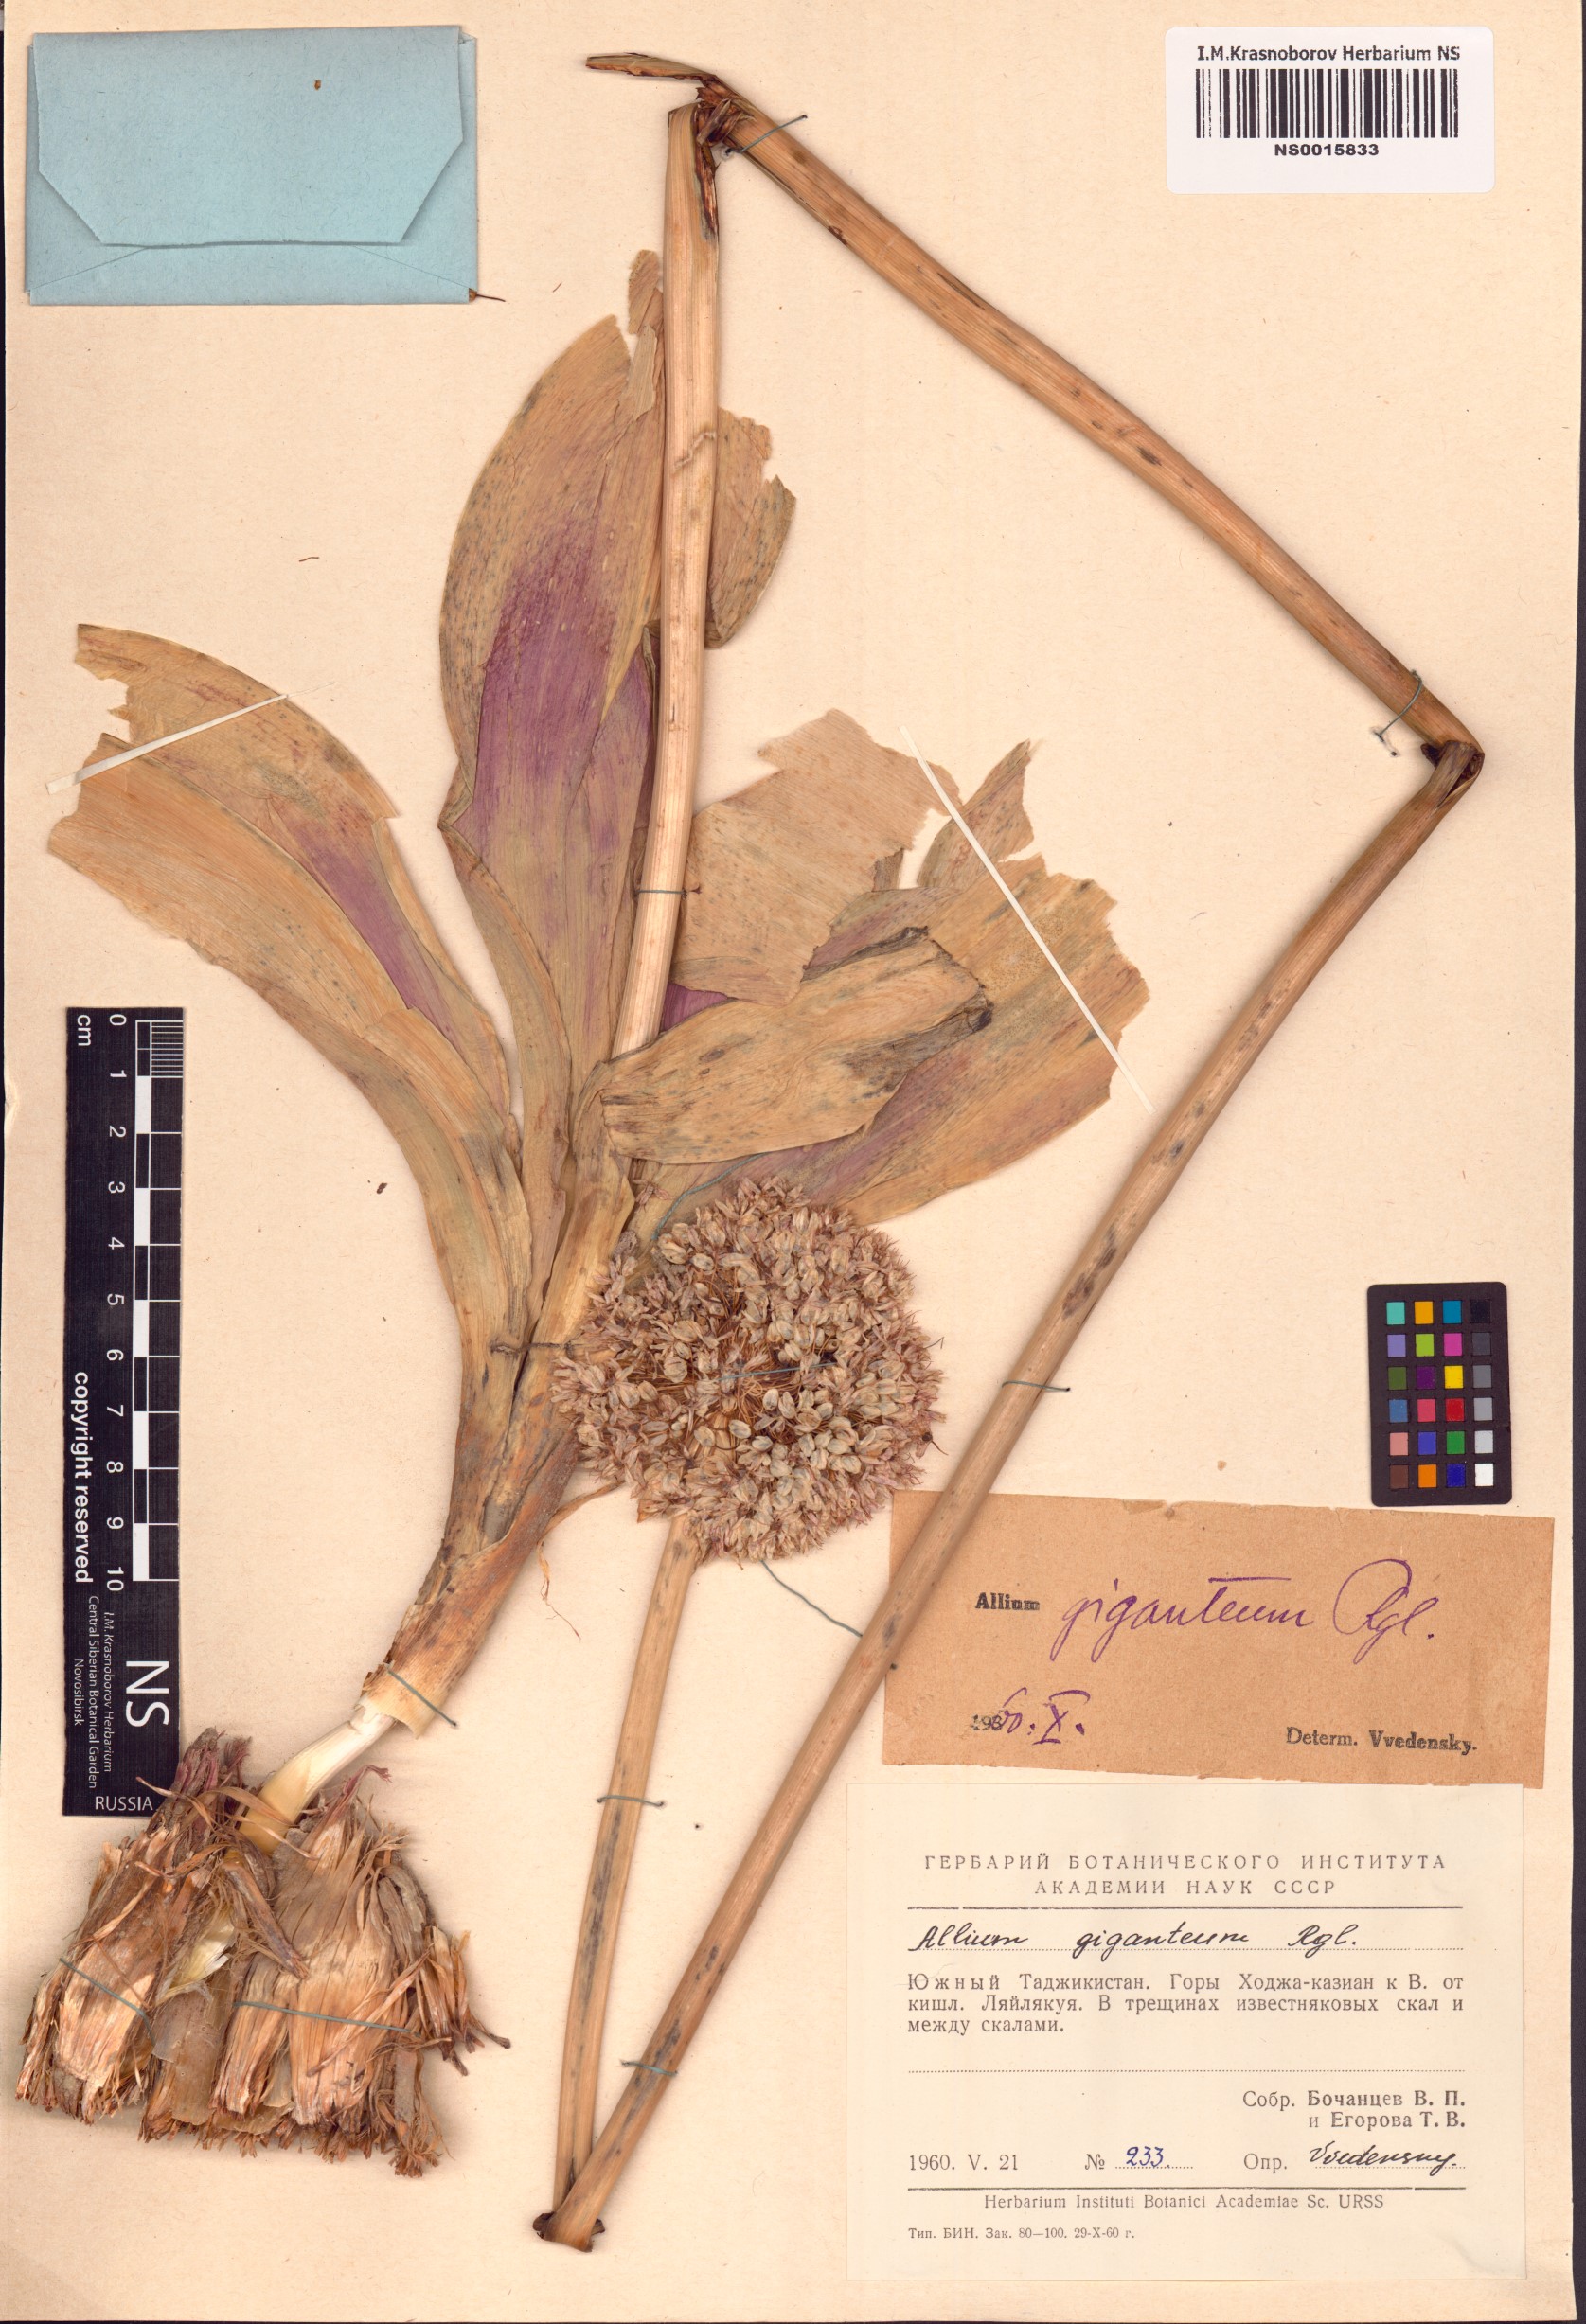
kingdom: Plantae
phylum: Tracheophyta
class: Liliopsida
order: Asparagales
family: Amaryllidaceae
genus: Allium
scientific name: Allium giganteum
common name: Giant onion
